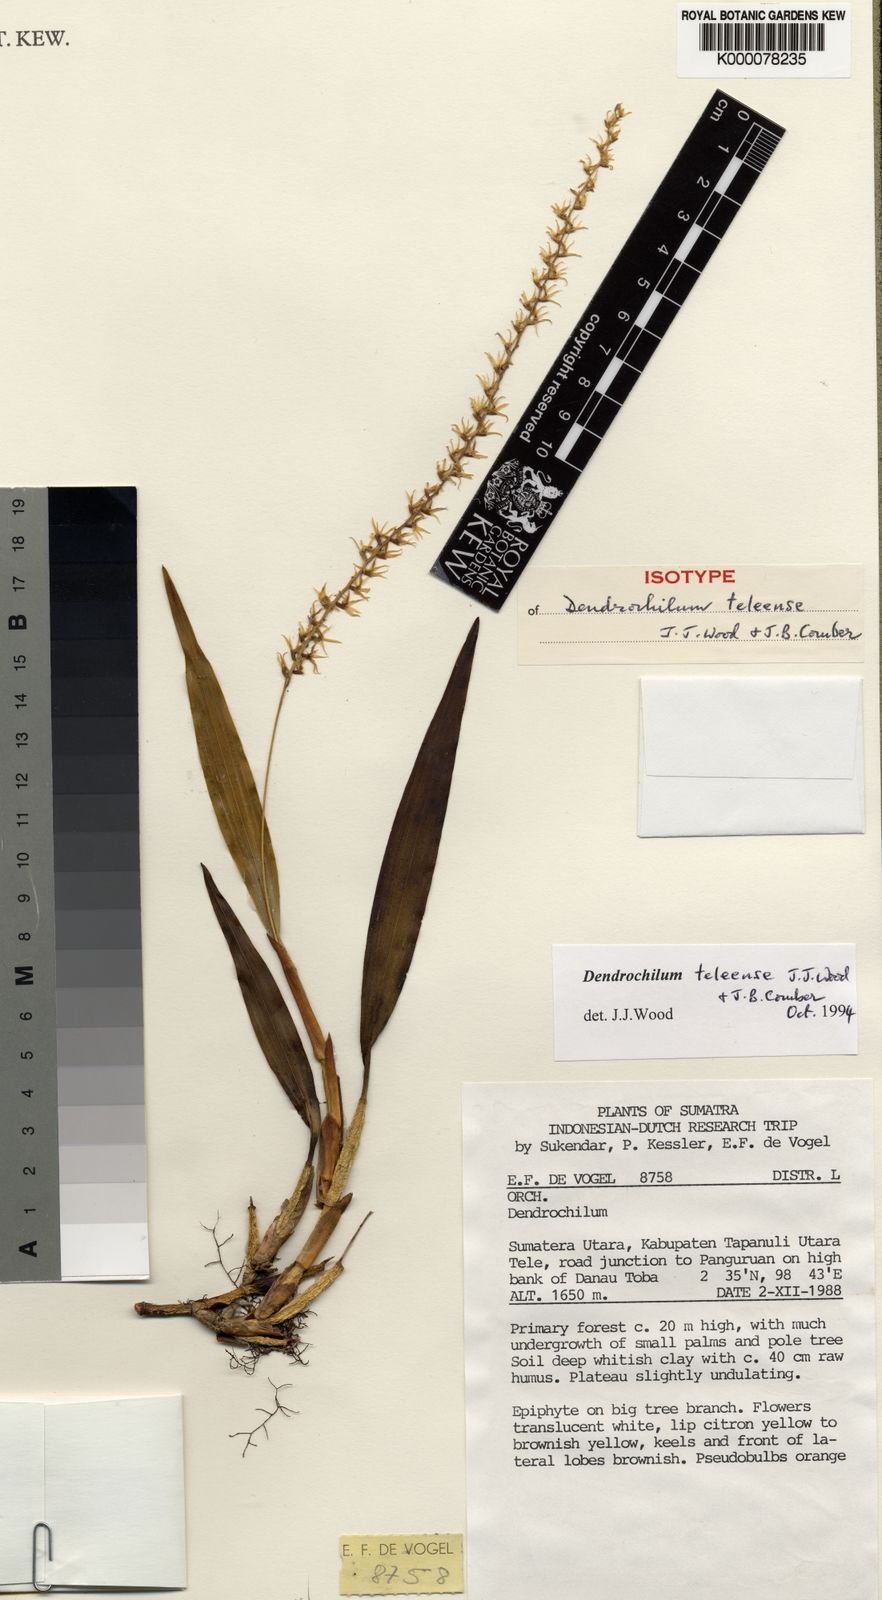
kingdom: Plantae
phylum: Tracheophyta
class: Liliopsida
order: Asparagales
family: Orchidaceae
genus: Coelogyne
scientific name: Coelogyne teleensis
